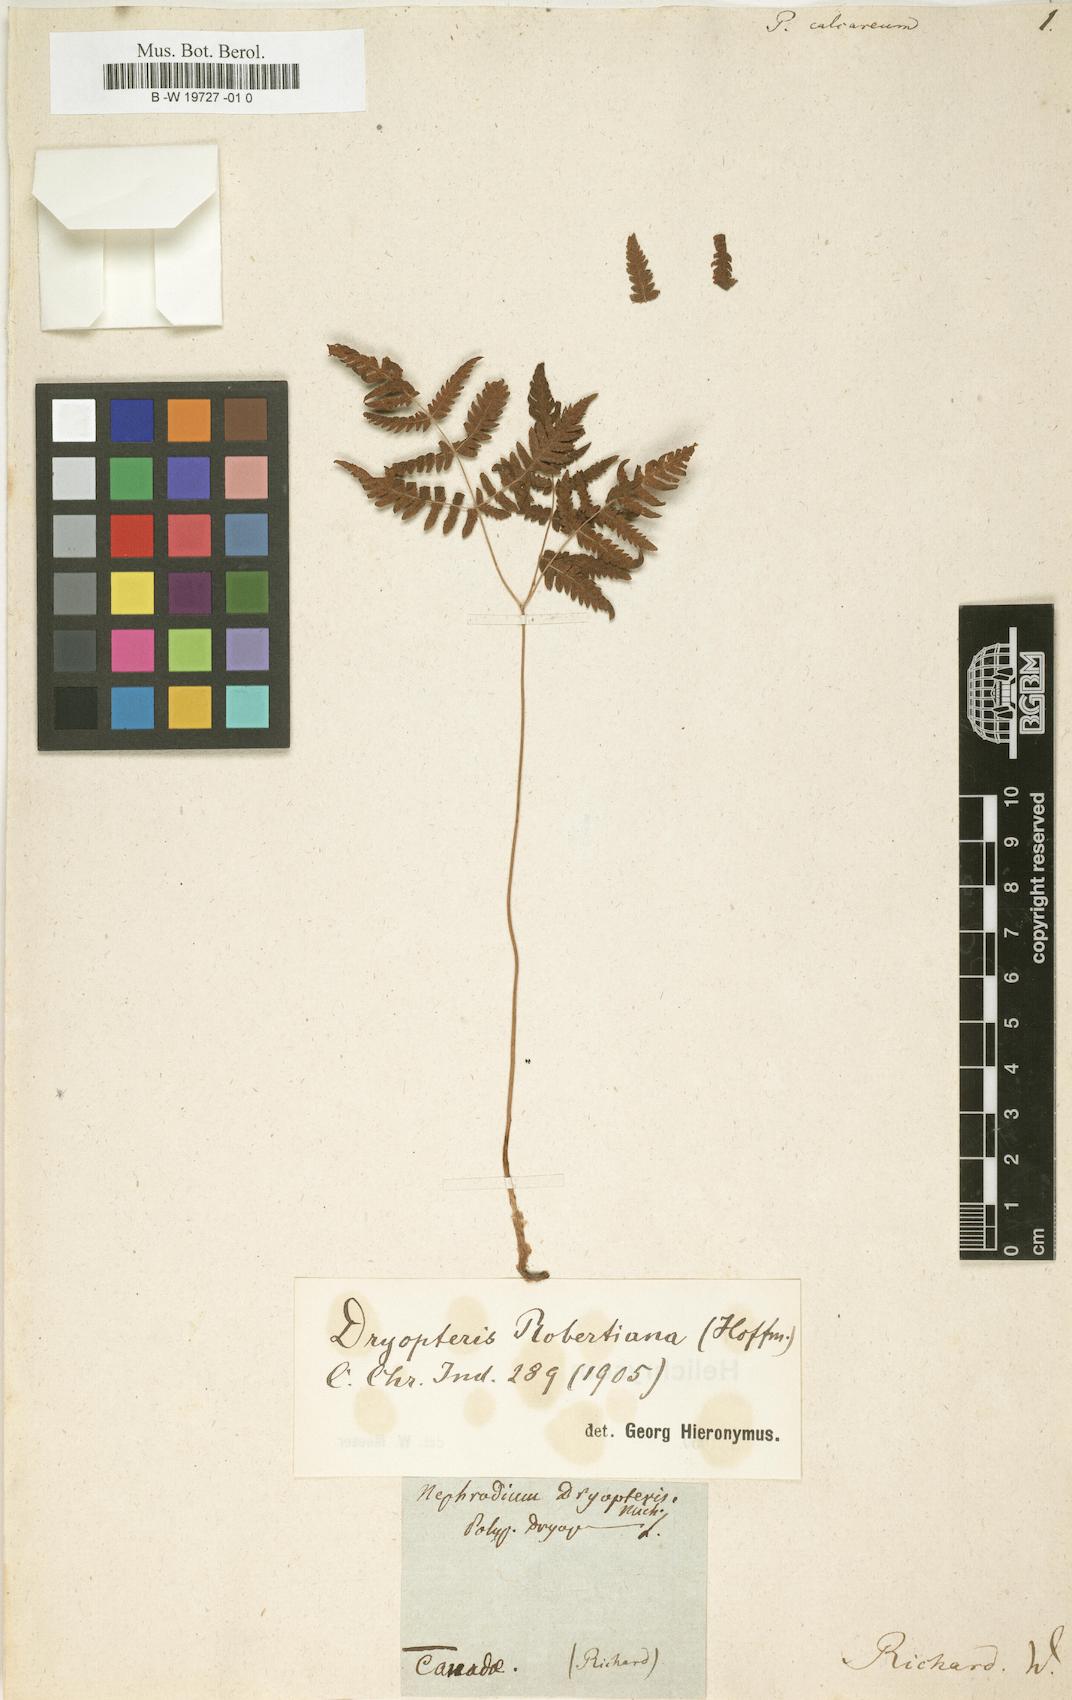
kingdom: Plantae
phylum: Tracheophyta
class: Polypodiopsida
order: Polypodiales
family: Cystopteridaceae
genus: Gymnocarpium
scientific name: Gymnocarpium robertianum
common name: Limestone fern
